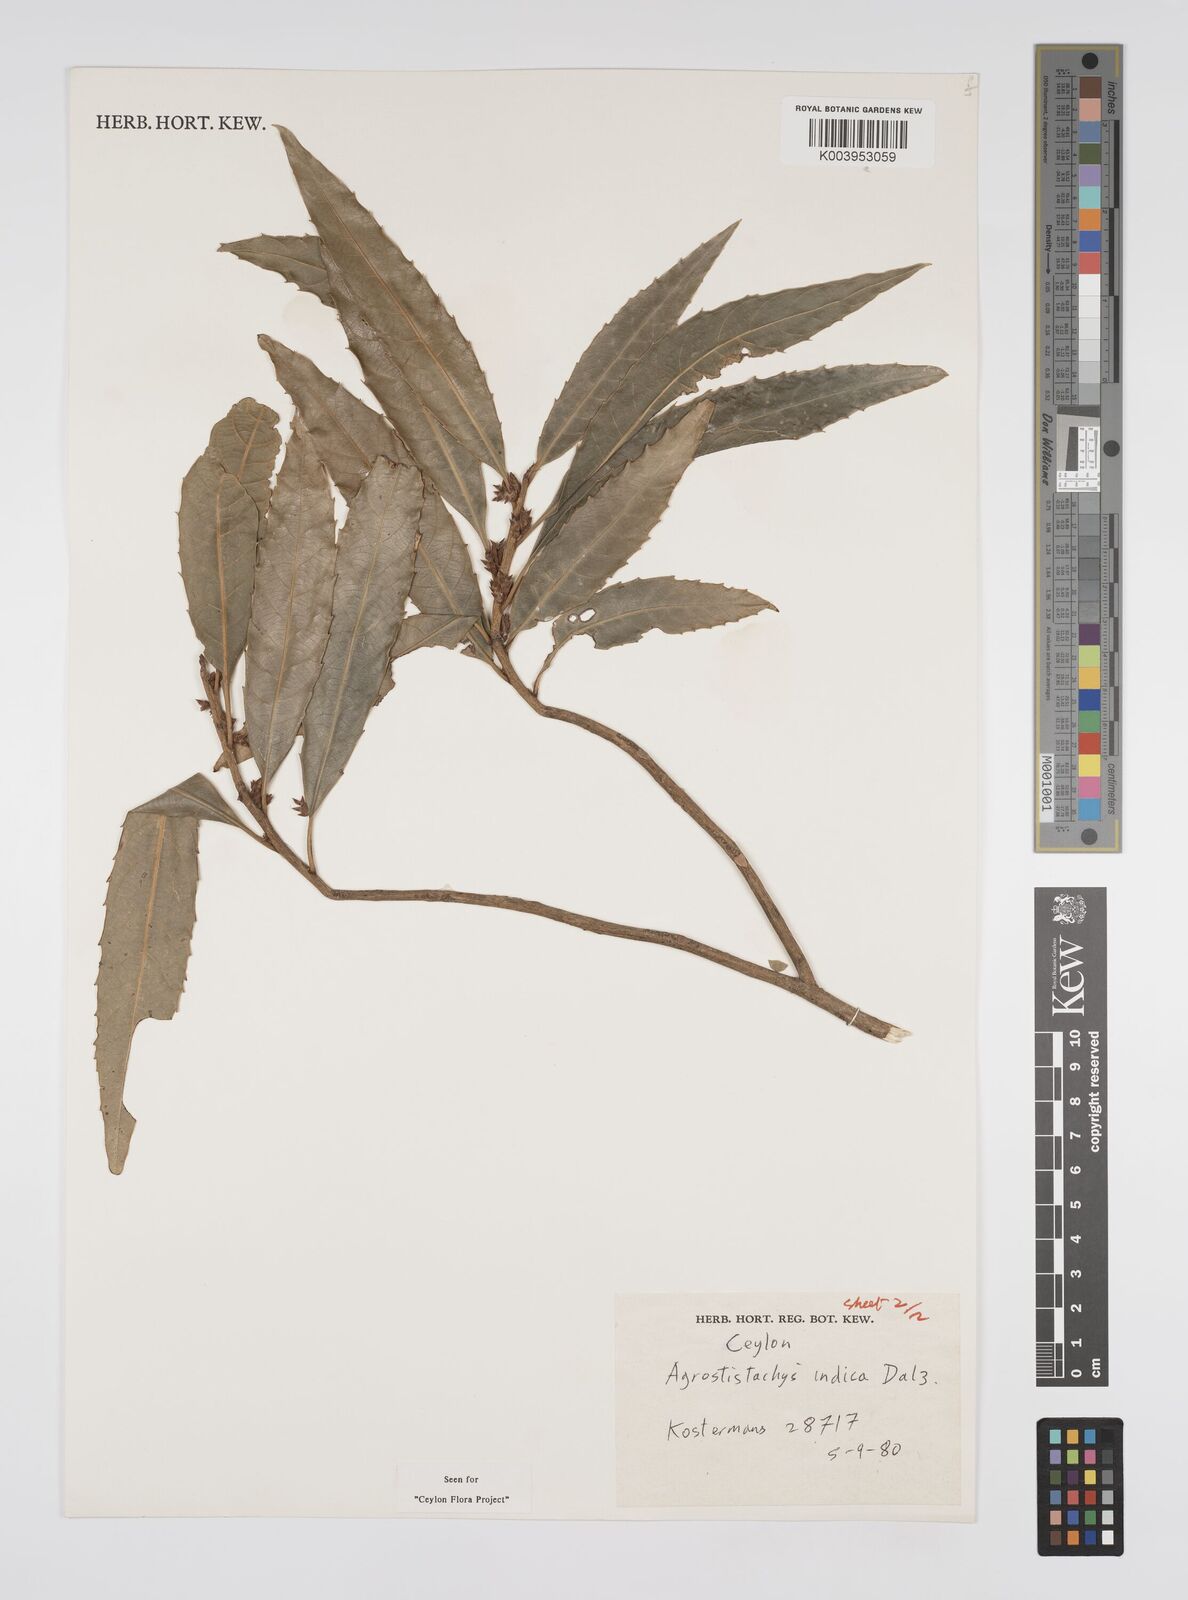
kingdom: Plantae
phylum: Tracheophyta
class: Magnoliopsida
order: Malpighiales
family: Euphorbiaceae
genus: Agrostistachys
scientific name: Agrostistachys indica
